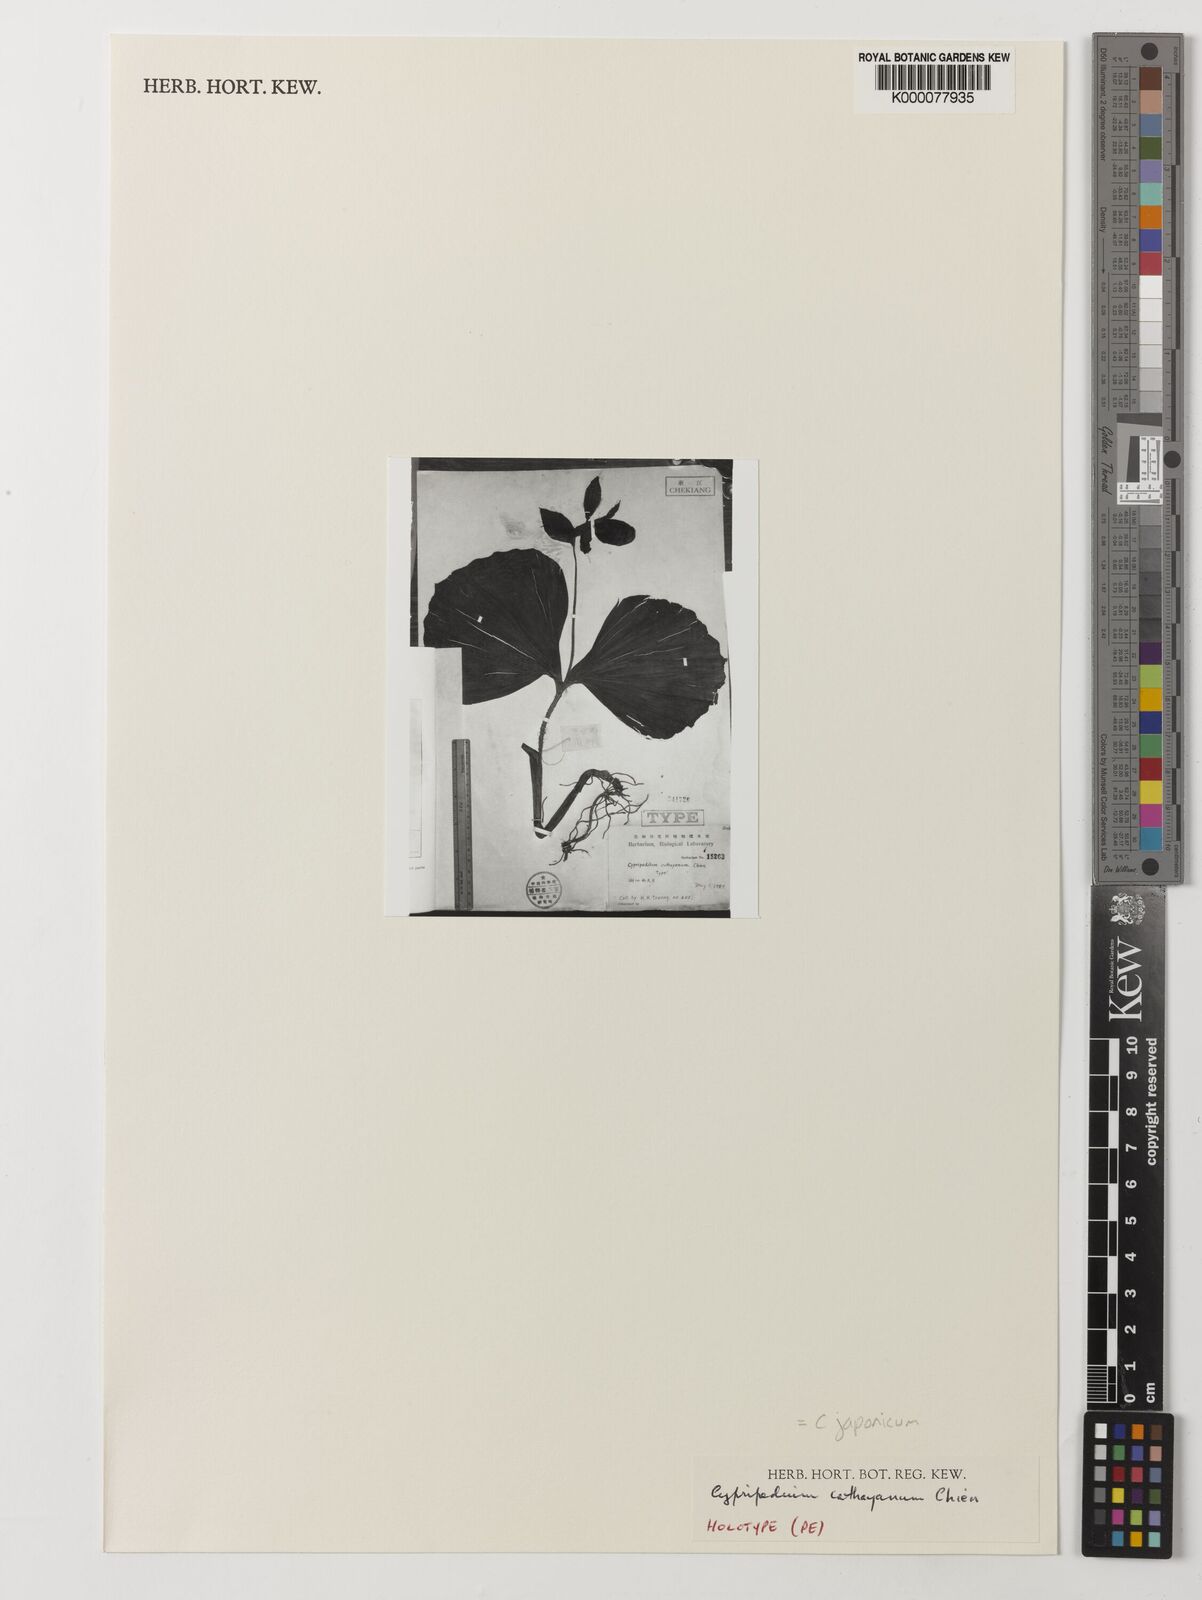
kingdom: Plantae
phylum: Tracheophyta
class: Liliopsida
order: Asparagales
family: Orchidaceae
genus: Cypripedium
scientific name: Cypripedium japonicum
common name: Japanese ladyslipper
